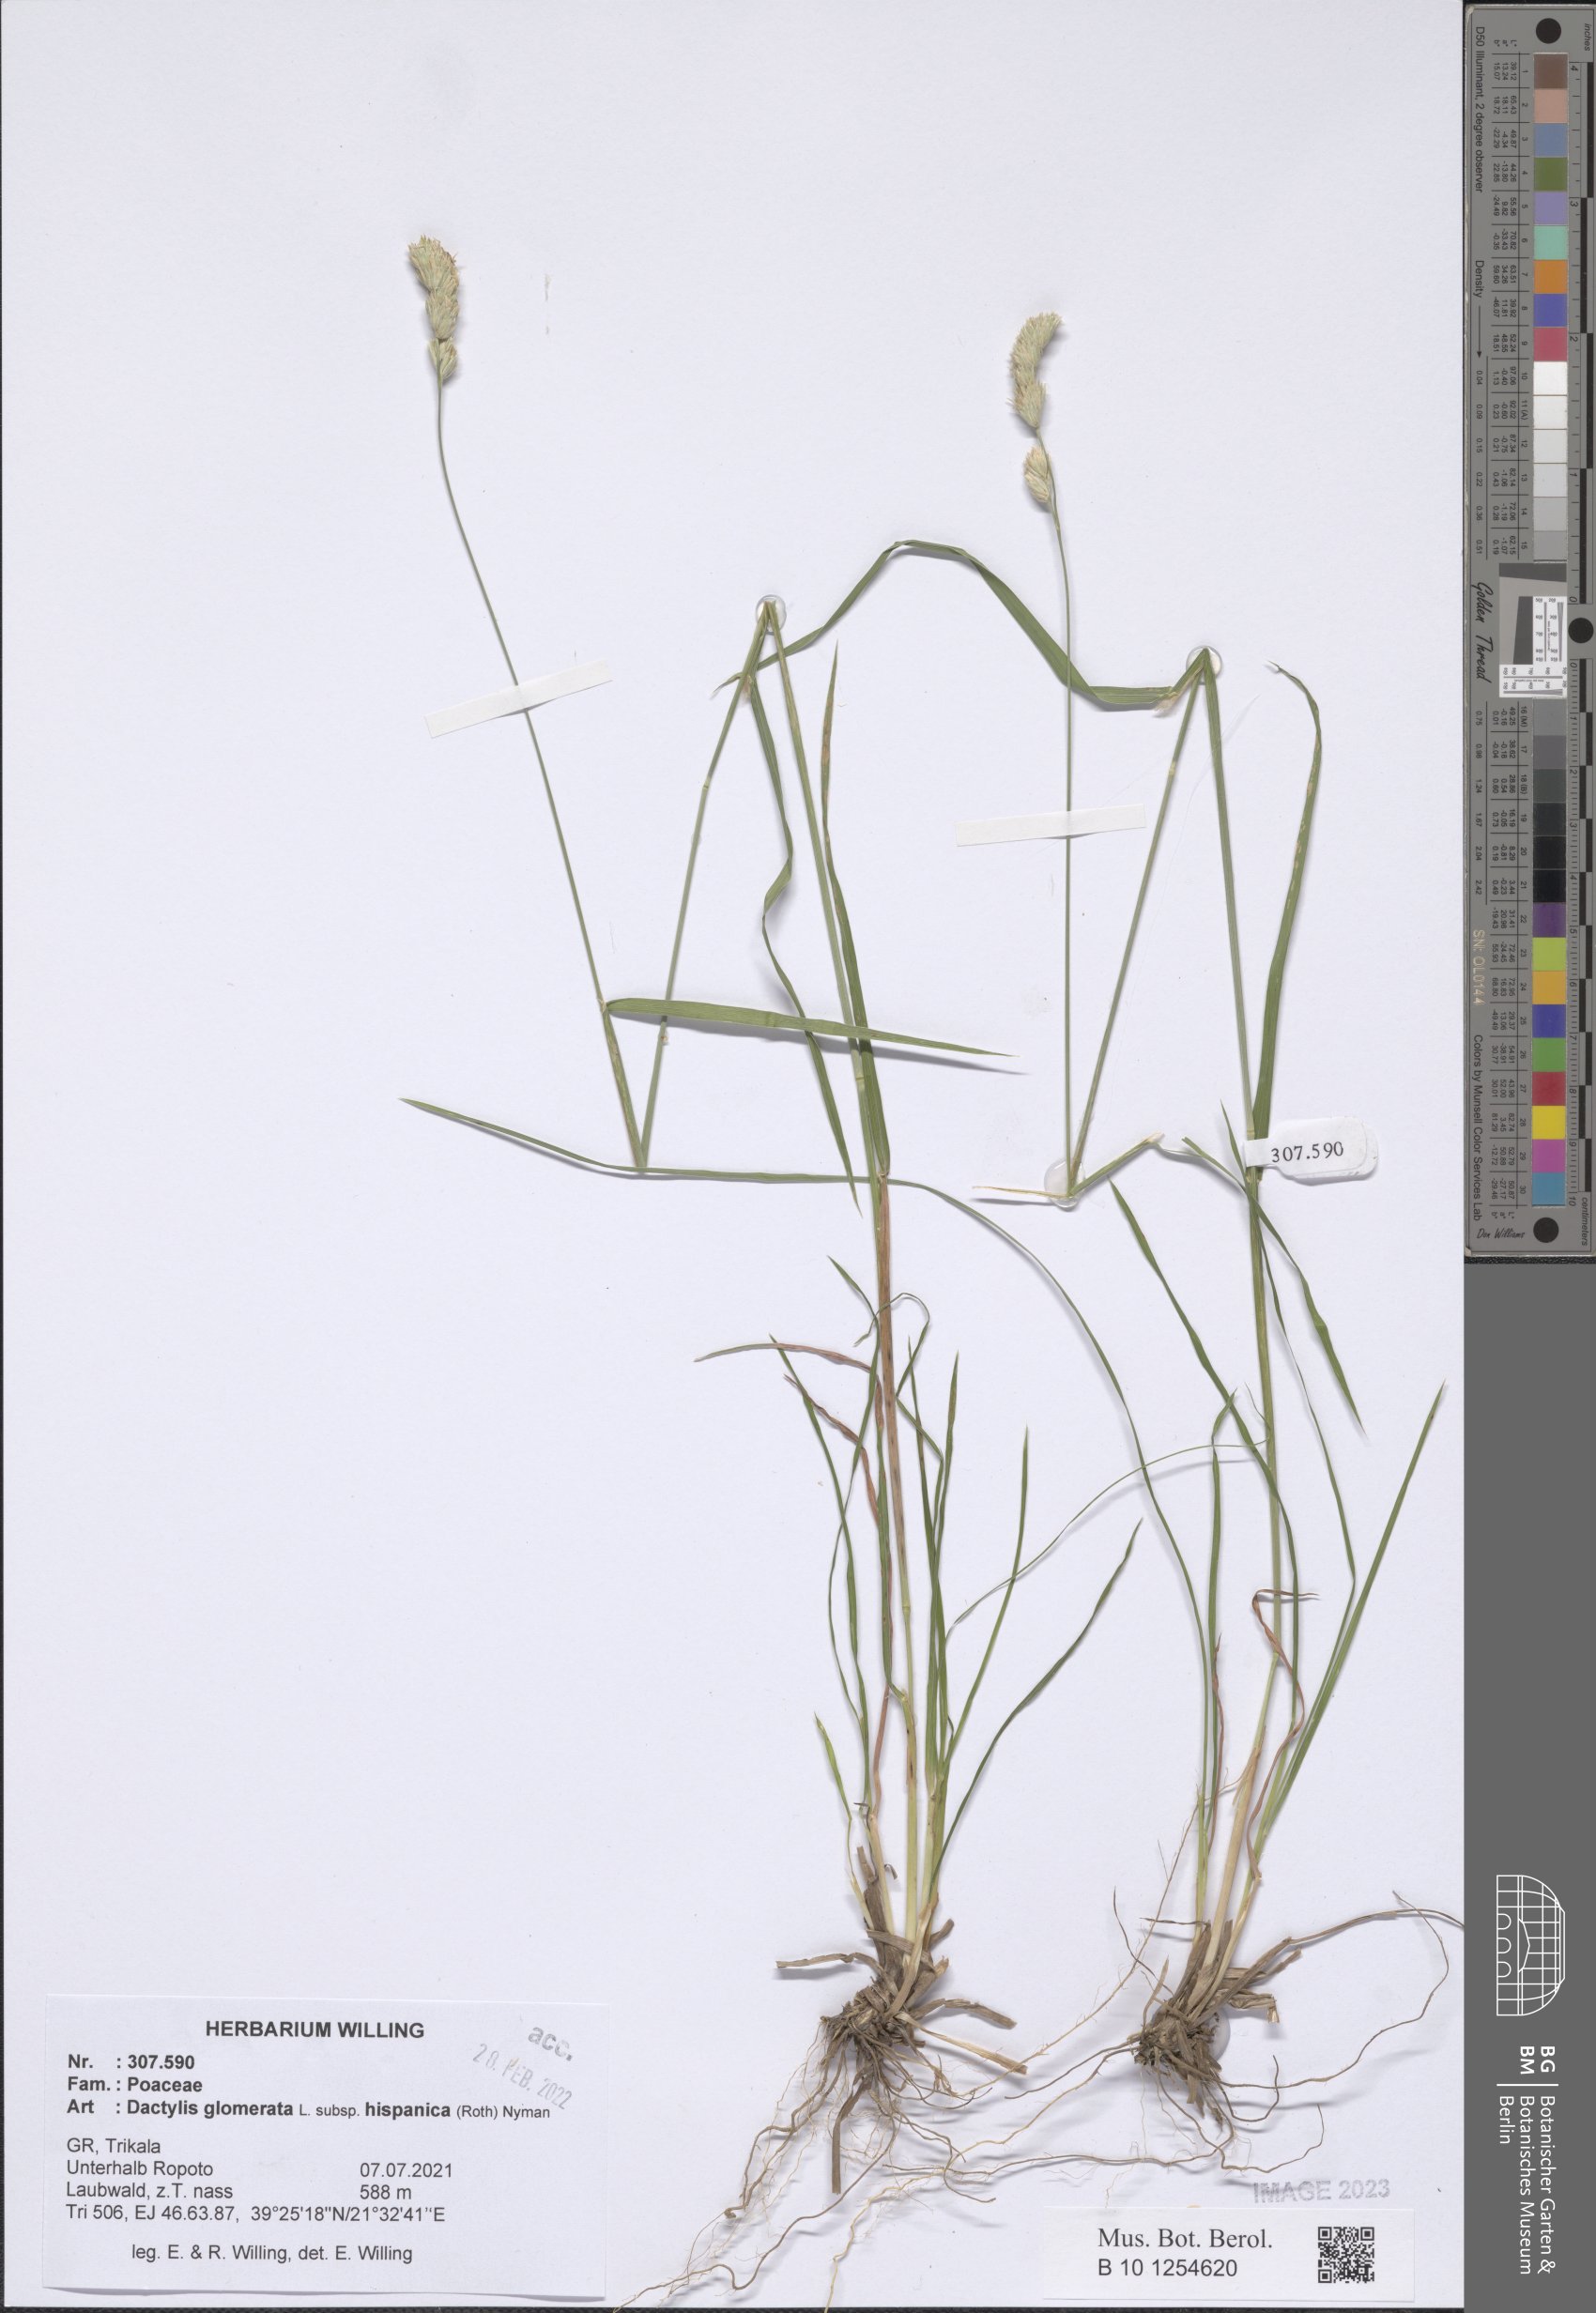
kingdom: Plantae
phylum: Tracheophyta
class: Liliopsida
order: Poales
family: Poaceae
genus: Dactylis
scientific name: Dactylis glomerata
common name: Orchardgrass
